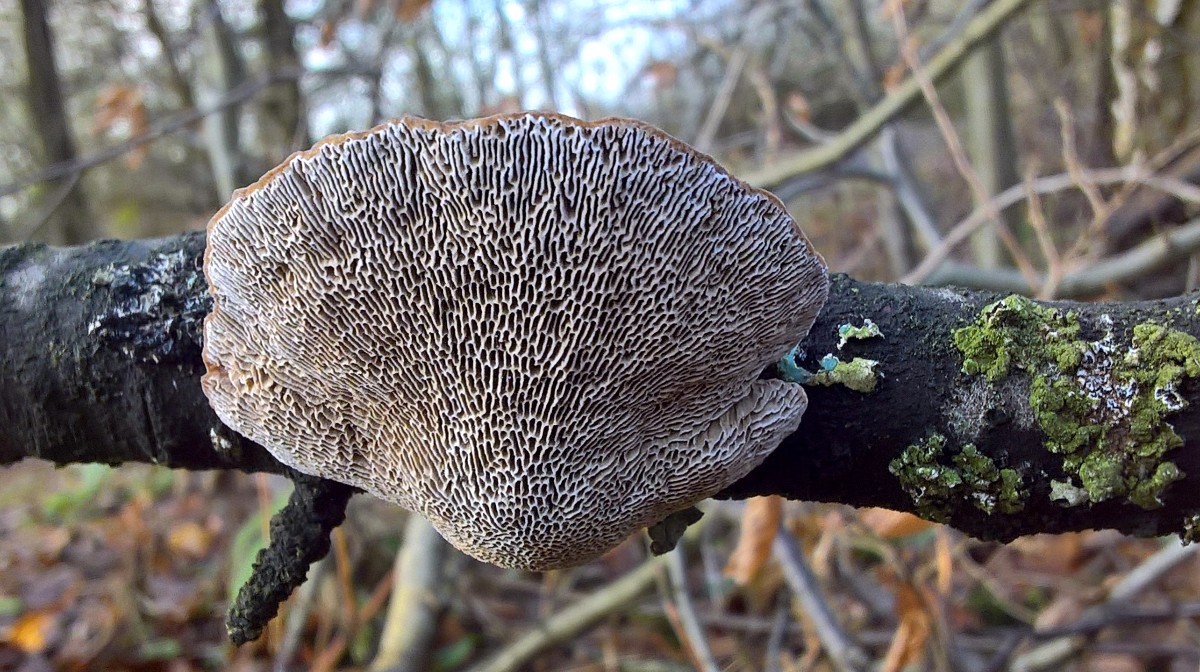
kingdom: Fungi
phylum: Basidiomycota
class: Agaricomycetes
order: Polyporales
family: Polyporaceae
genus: Daedaleopsis
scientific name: Daedaleopsis confragosa
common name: rødmende læderporesvamp
